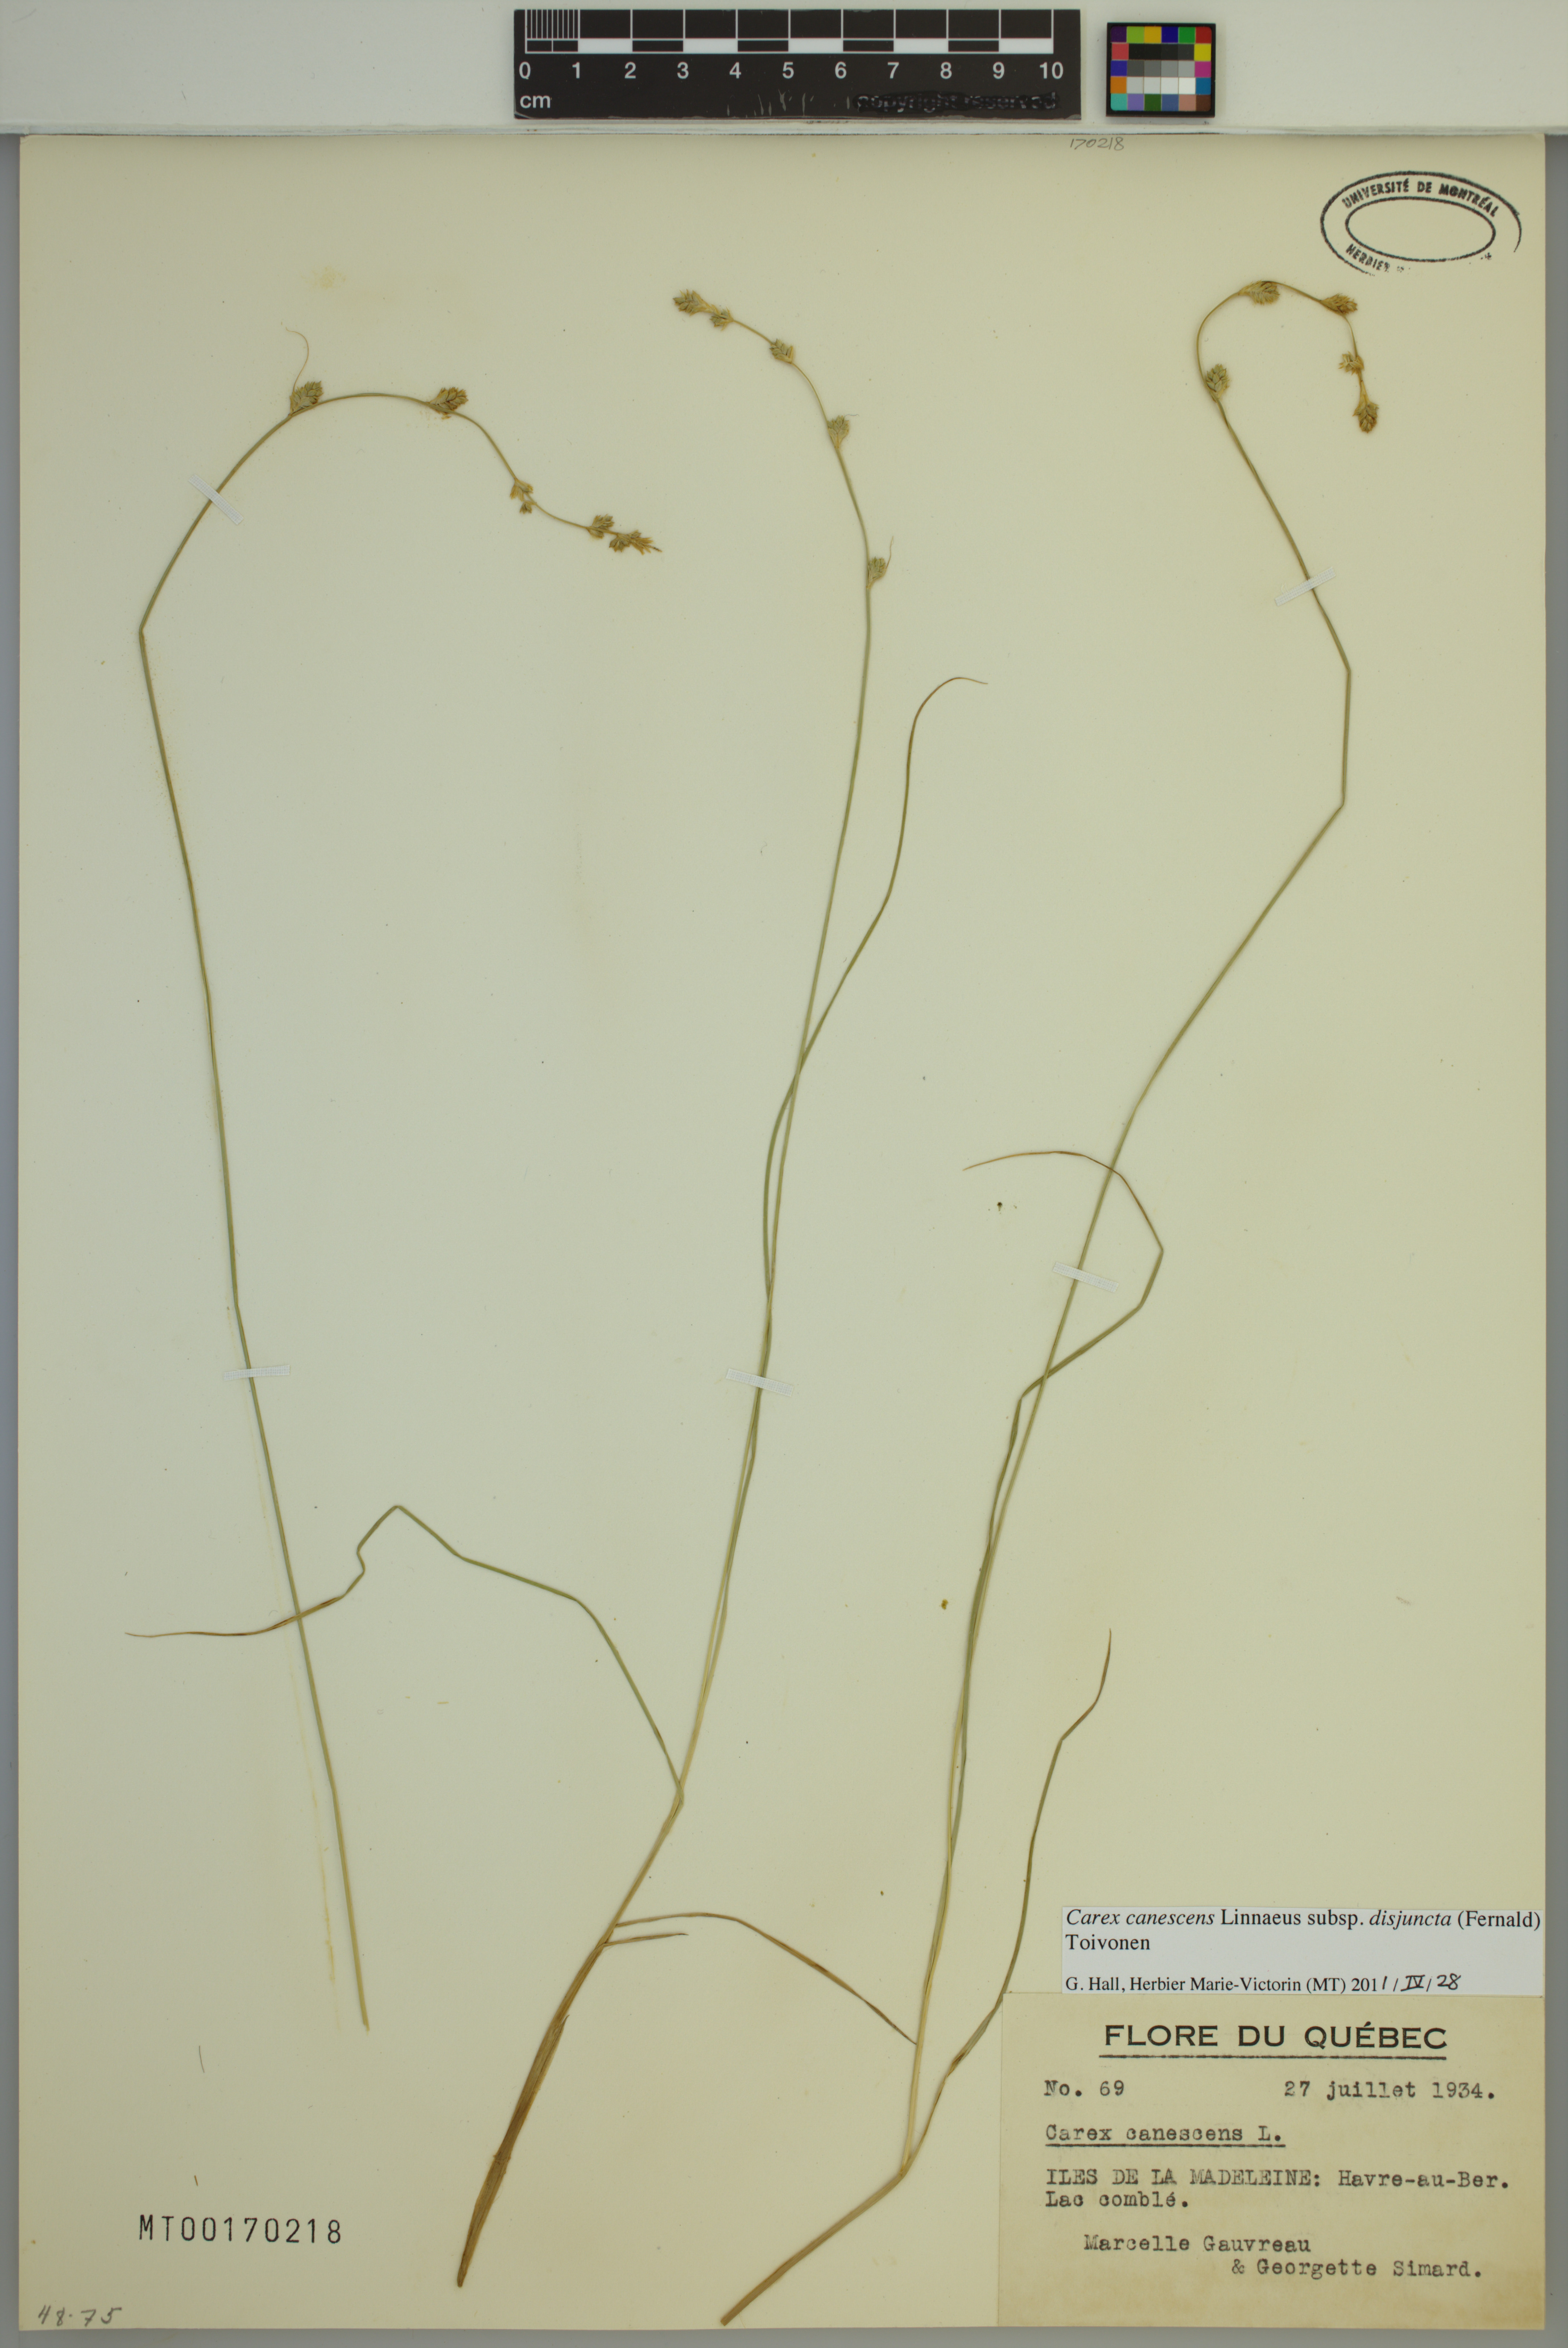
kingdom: Plantae
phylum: Tracheophyta
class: Liliopsida
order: Poales
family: Cyperaceae
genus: Carex
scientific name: Carex canescens
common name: White sedge
